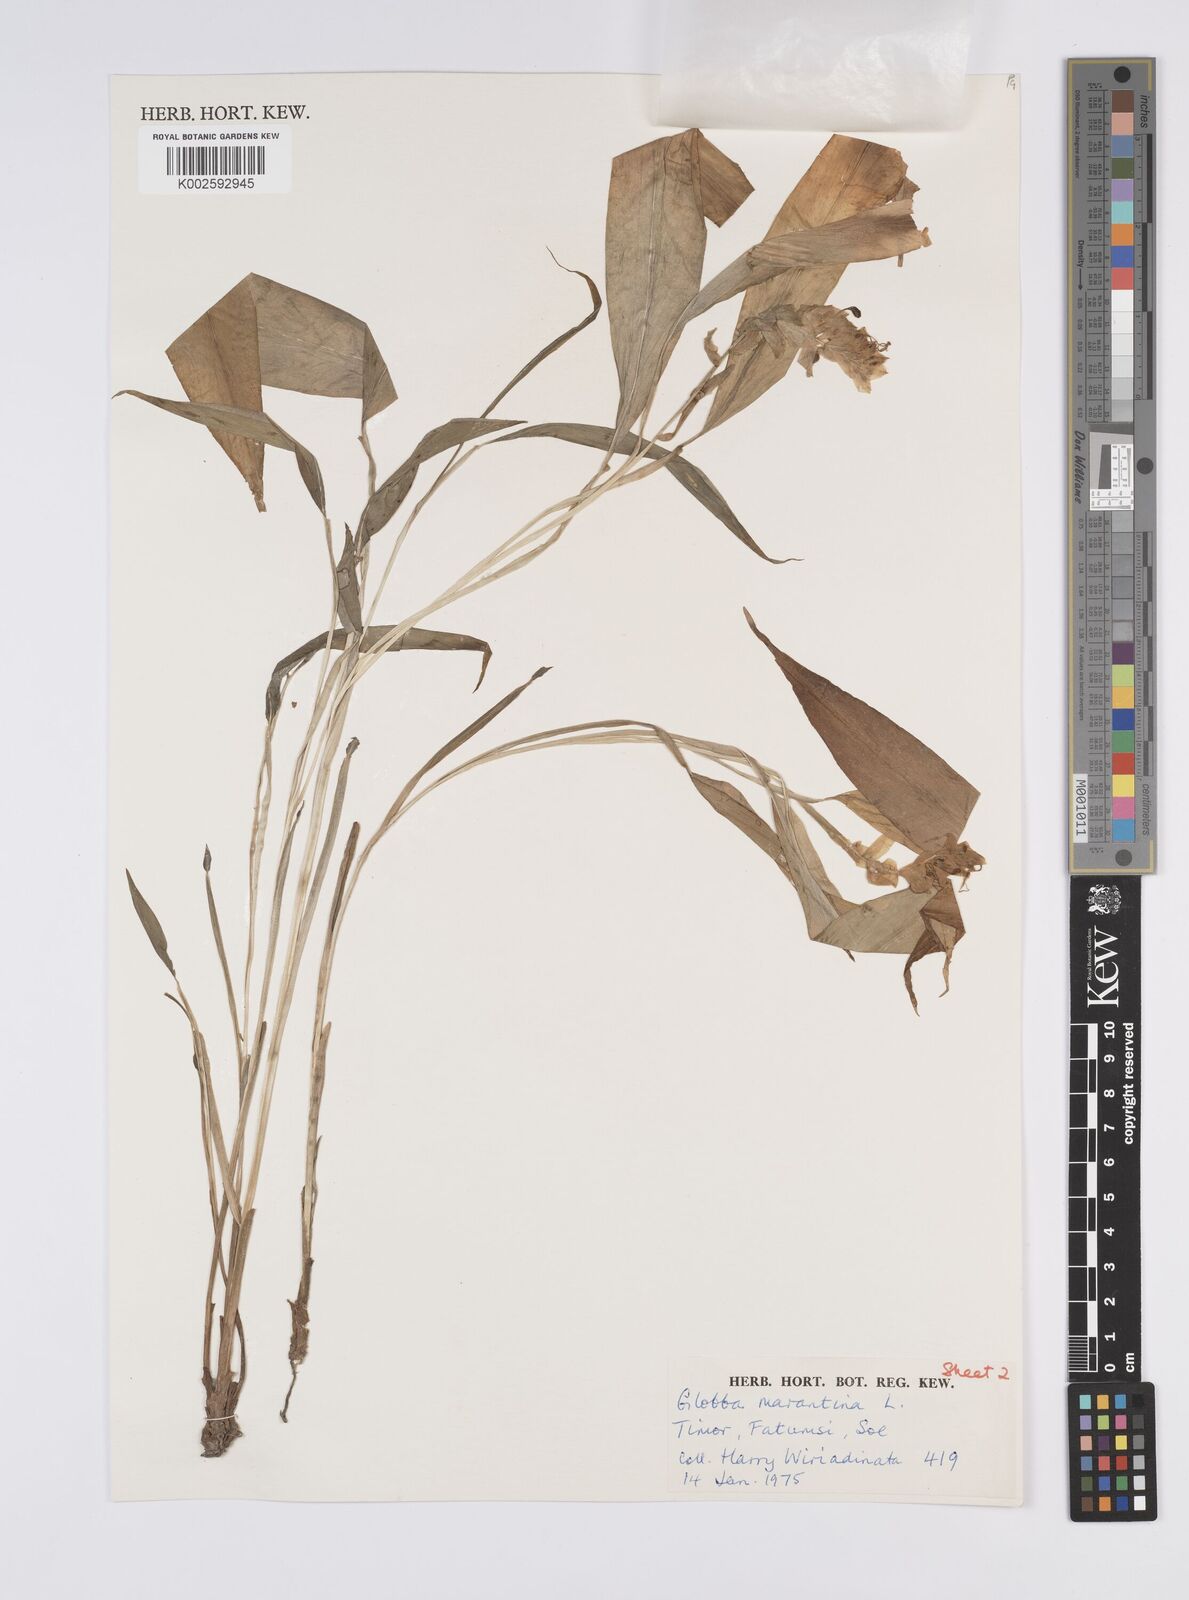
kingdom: Plantae
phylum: Tracheophyta
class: Liliopsida
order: Zingiberales
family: Zingiberaceae
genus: Globba
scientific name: Globba marantina
